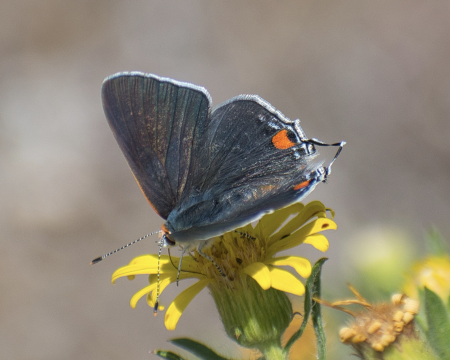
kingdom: Animalia
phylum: Arthropoda
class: Insecta
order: Lepidoptera
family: Lycaenidae
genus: Strymon
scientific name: Strymon melinus
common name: Gray Hairstreak
